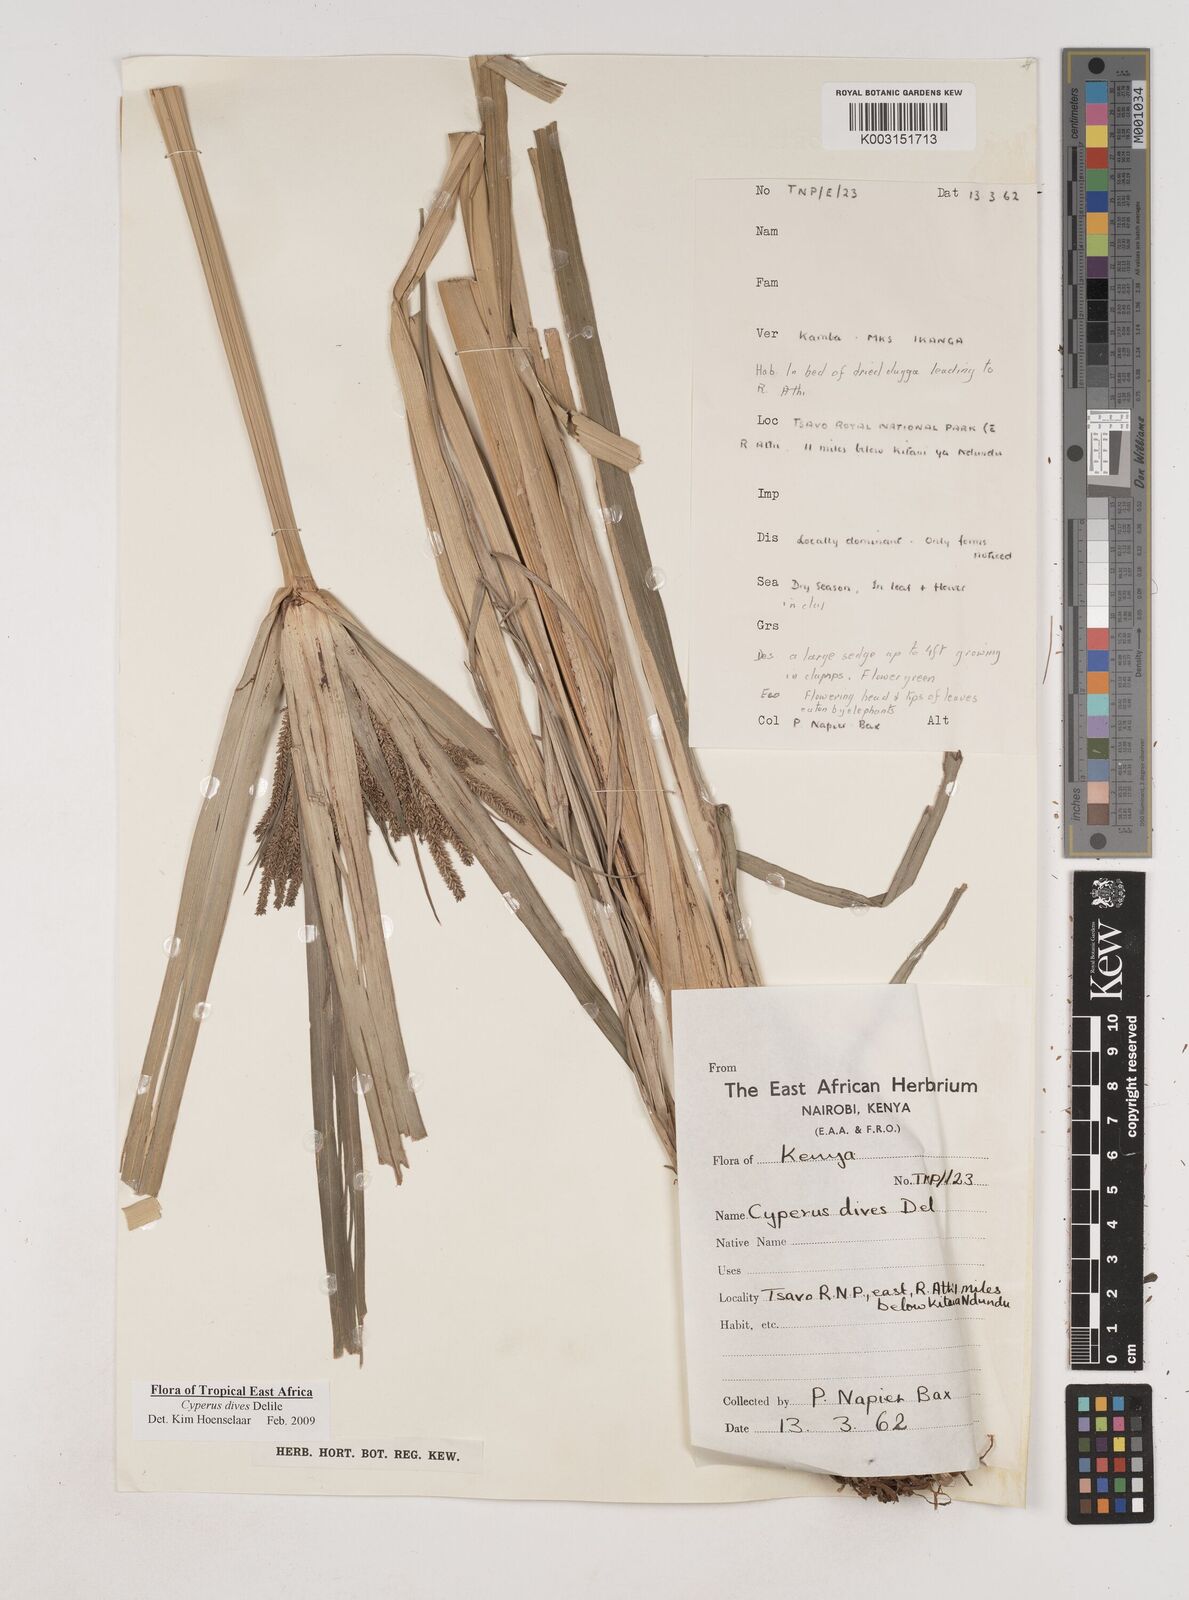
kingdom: Plantae
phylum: Tracheophyta
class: Liliopsida
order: Poales
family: Cyperaceae
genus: Cyperus
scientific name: Cyperus dives
